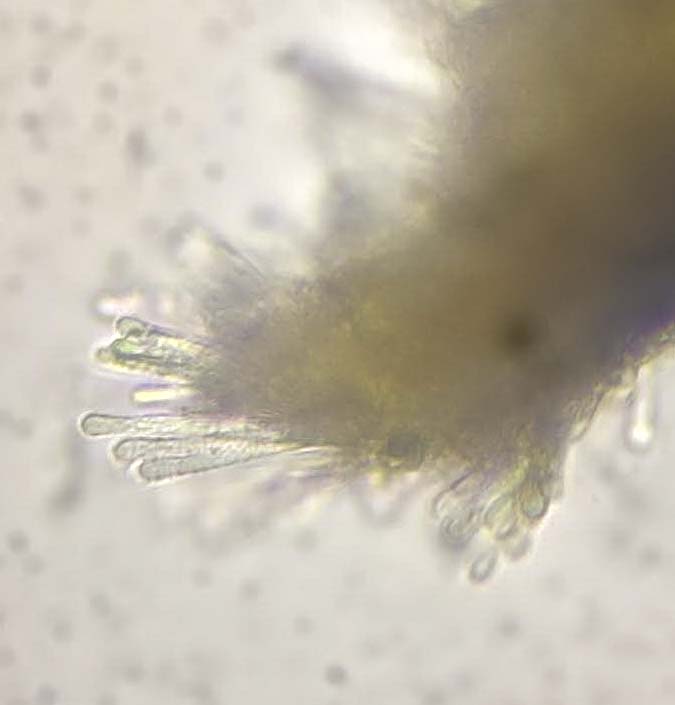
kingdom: Fungi
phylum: Ascomycota
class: Leotiomycetes
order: Helotiales
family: Lachnaceae
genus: Lachnum
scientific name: Lachnum tenuissimum
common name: spinkel frynseskive
